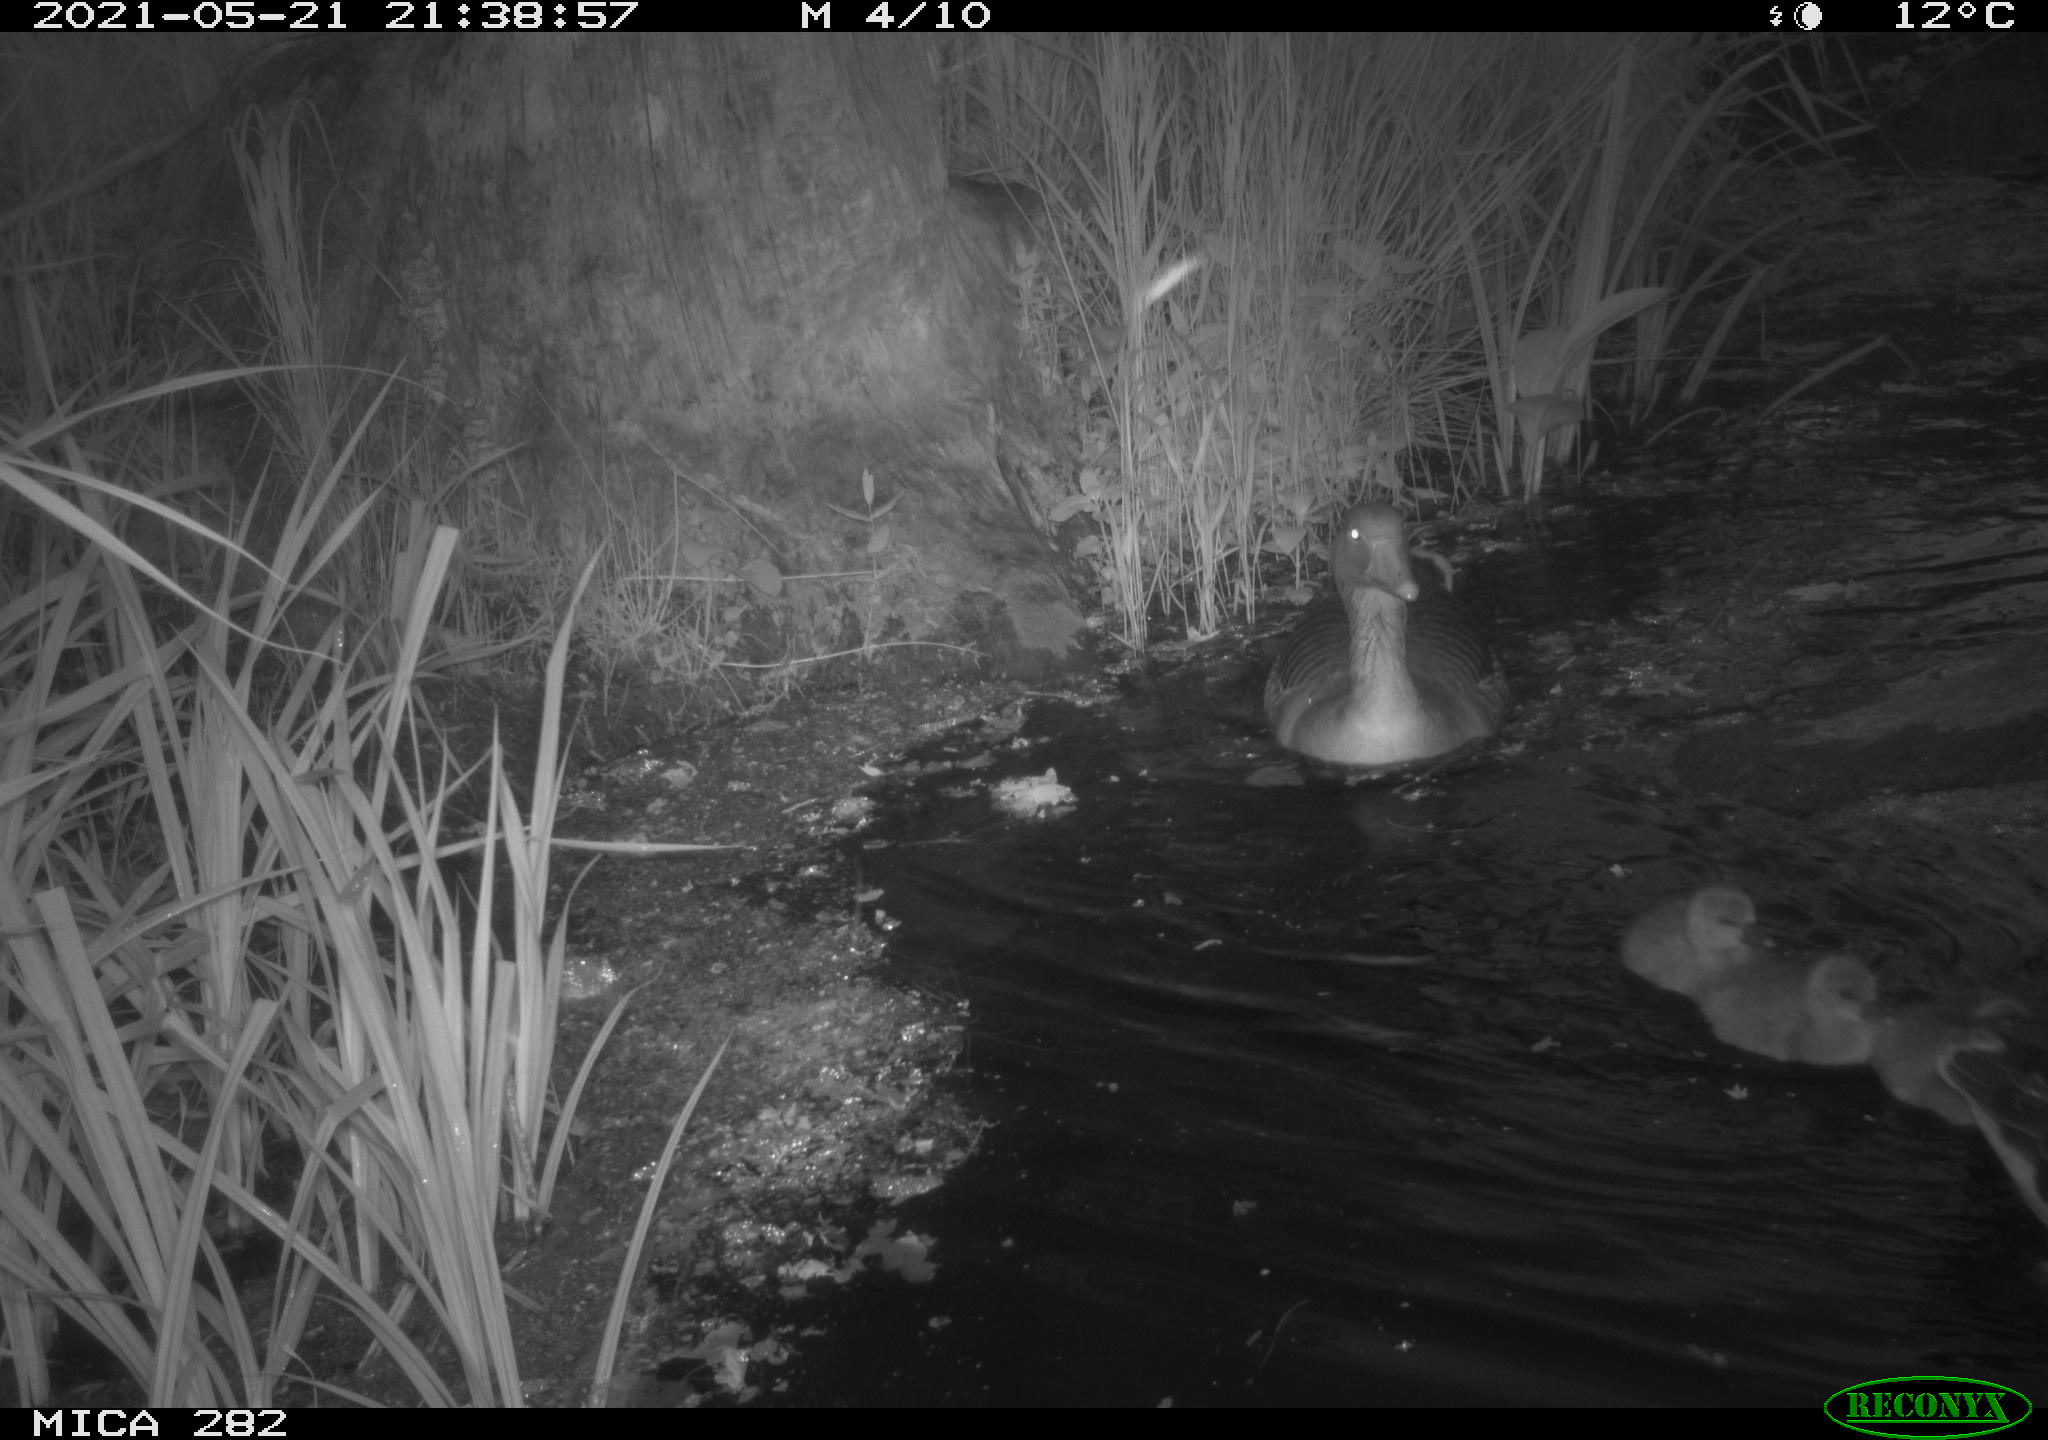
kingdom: Animalia
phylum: Chordata
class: Aves
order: Anseriformes
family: Anatidae
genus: Anser
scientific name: Anser anser
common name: Greylag goose
